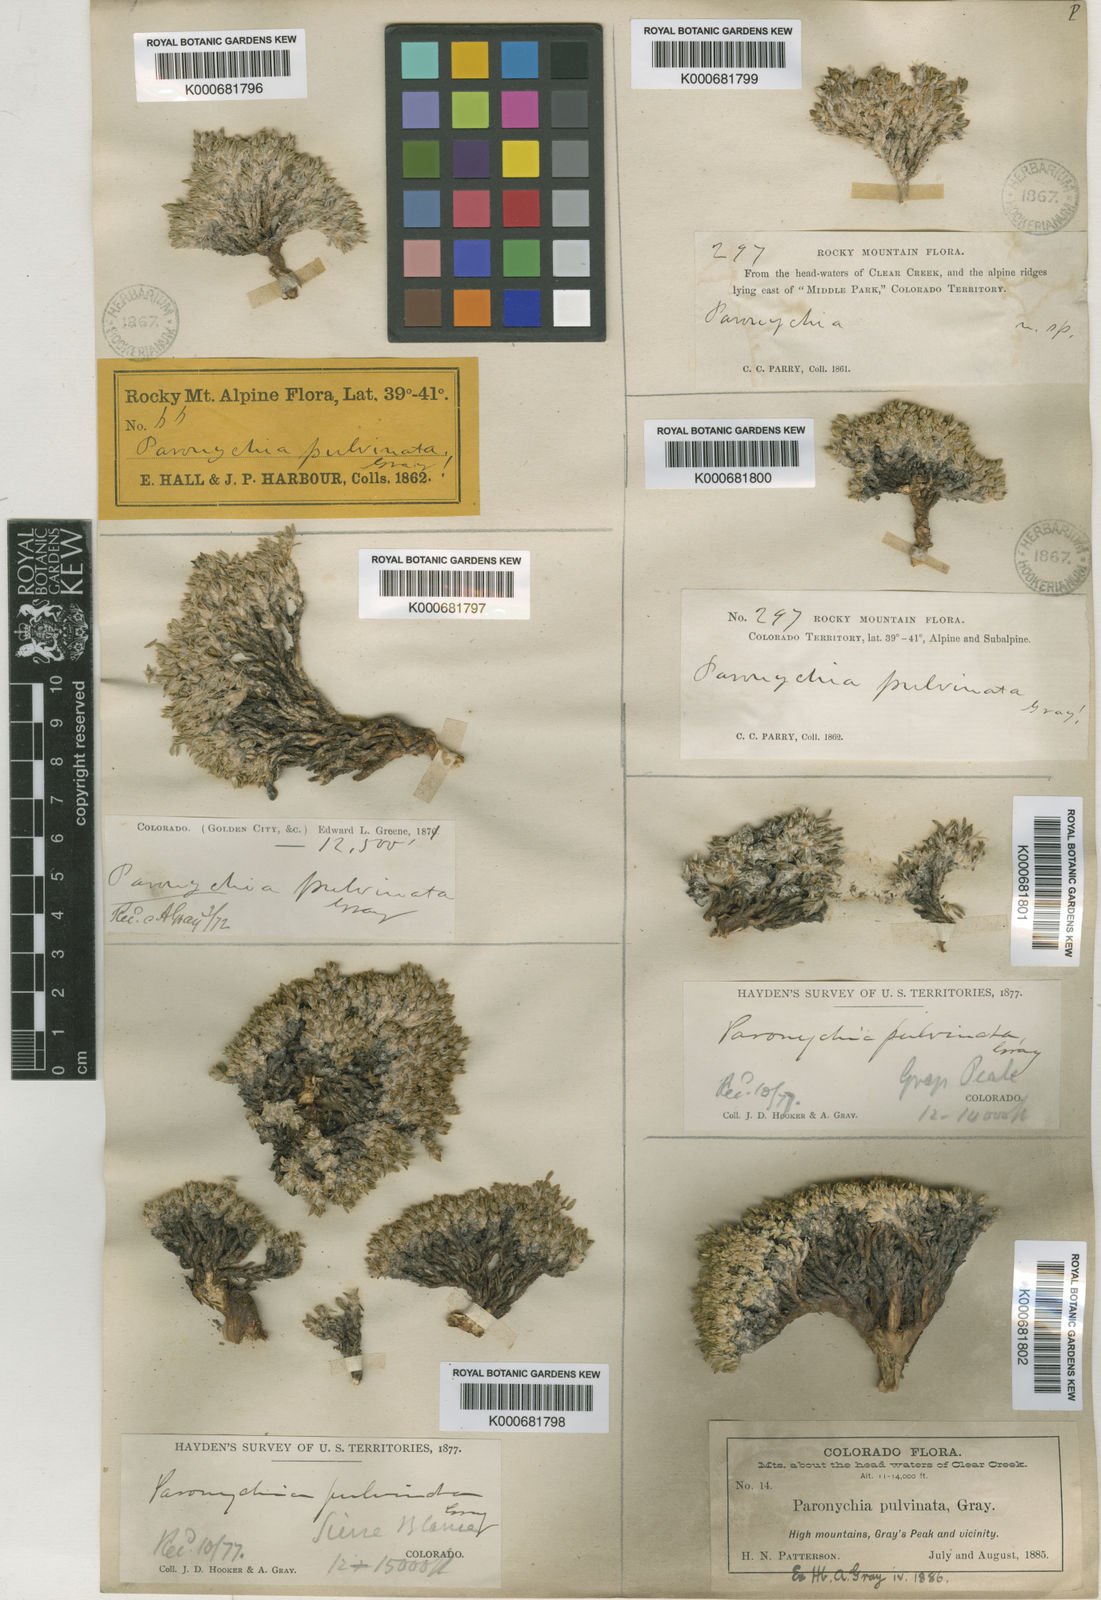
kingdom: Plantae
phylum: Tracheophyta
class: Magnoliopsida
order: Caryophyllales
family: Caryophyllaceae
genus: Paronychia
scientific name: Paronychia pulvinata
